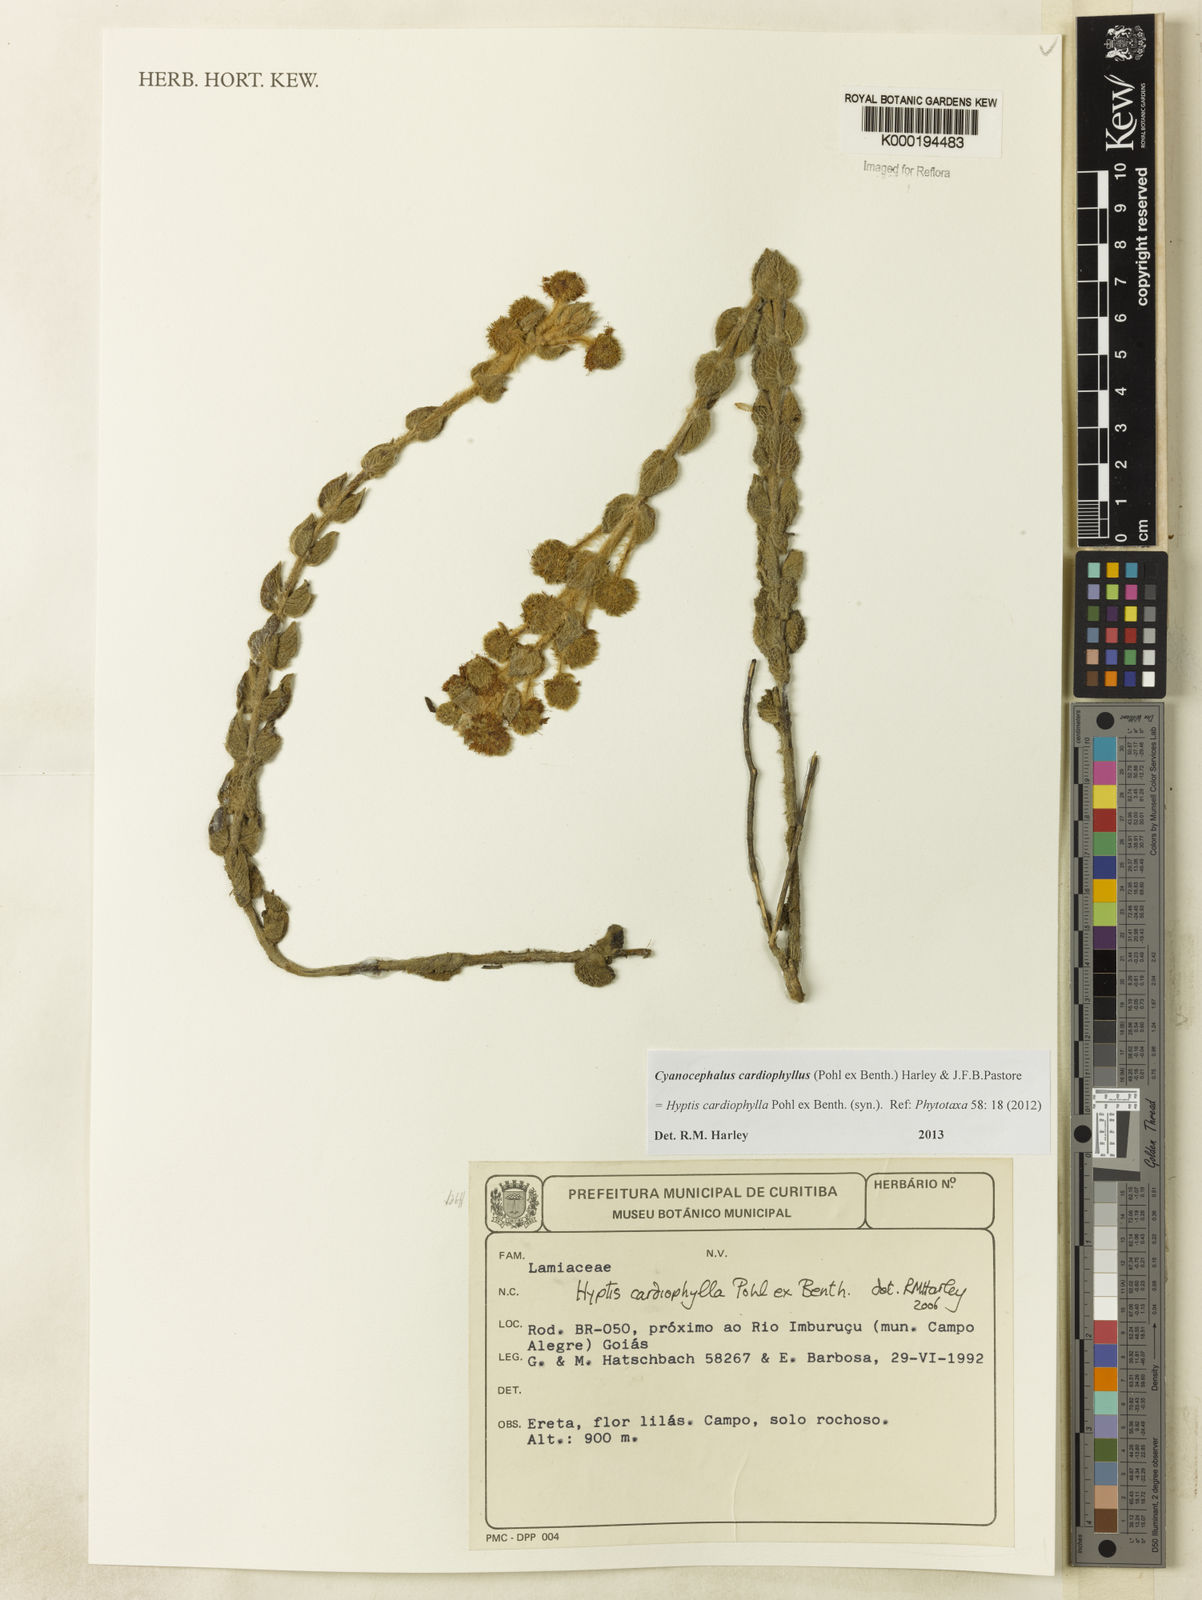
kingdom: Plantae
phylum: Tracheophyta
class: Magnoliopsida
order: Lamiales
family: Lamiaceae
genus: Cyanocephalus
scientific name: Cyanocephalus cardiophyllus
